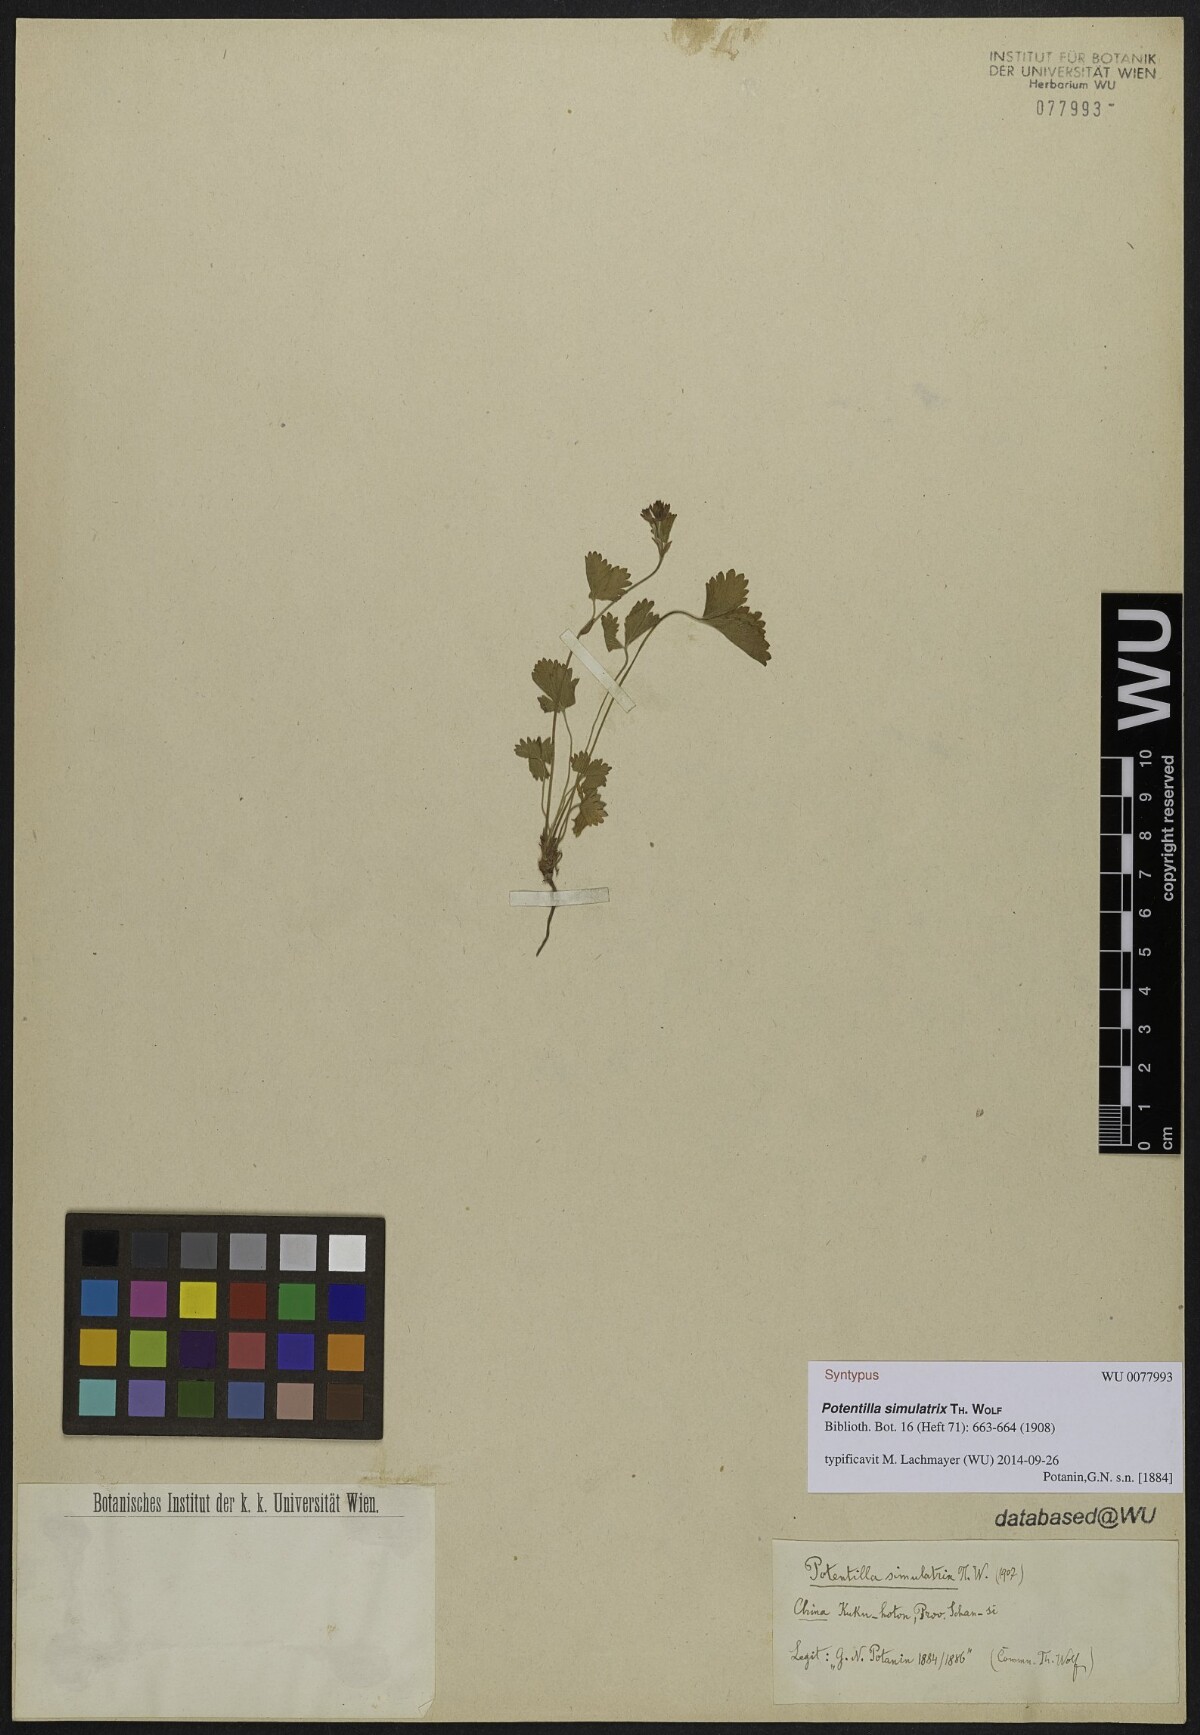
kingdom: Plantae
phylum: Tracheophyta
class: Magnoliopsida
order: Rosales
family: Rosaceae
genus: Potentilla
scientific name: Potentilla simulatrix
